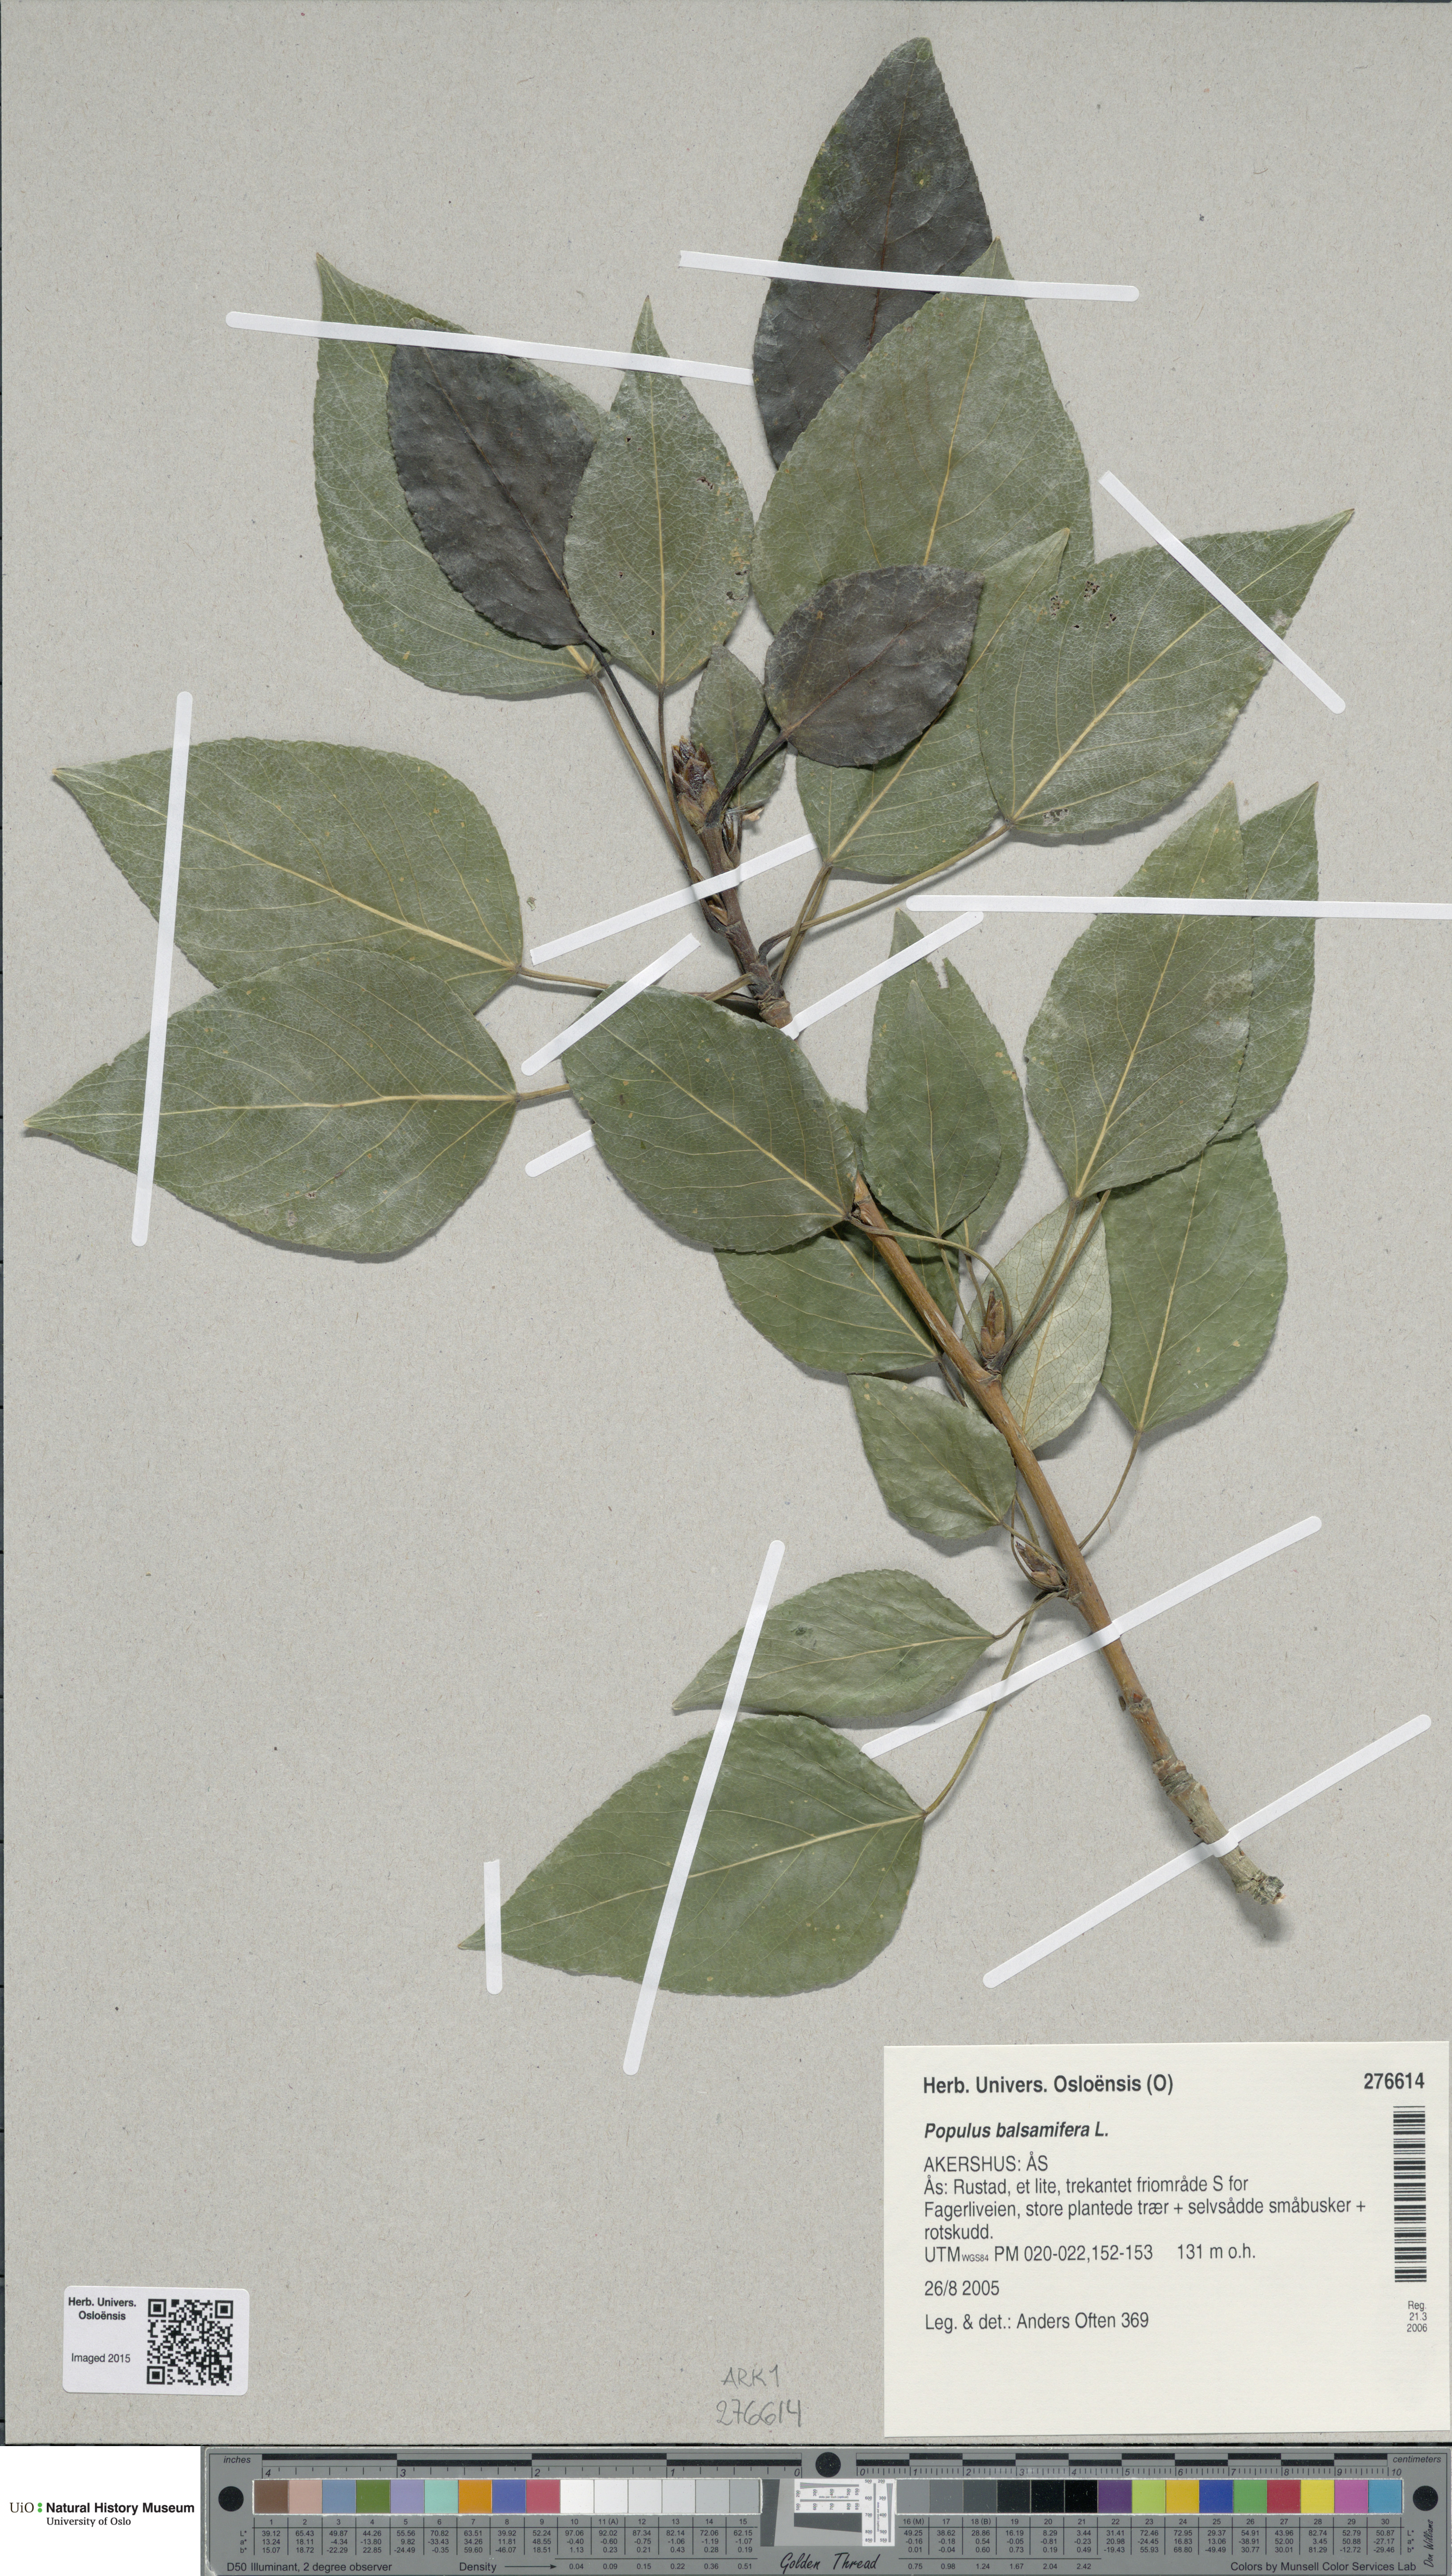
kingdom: Plantae
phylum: Tracheophyta
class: Magnoliopsida
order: Malpighiales
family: Salicaceae
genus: Populus
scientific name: Populus balsamifera
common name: Balsam poplar
